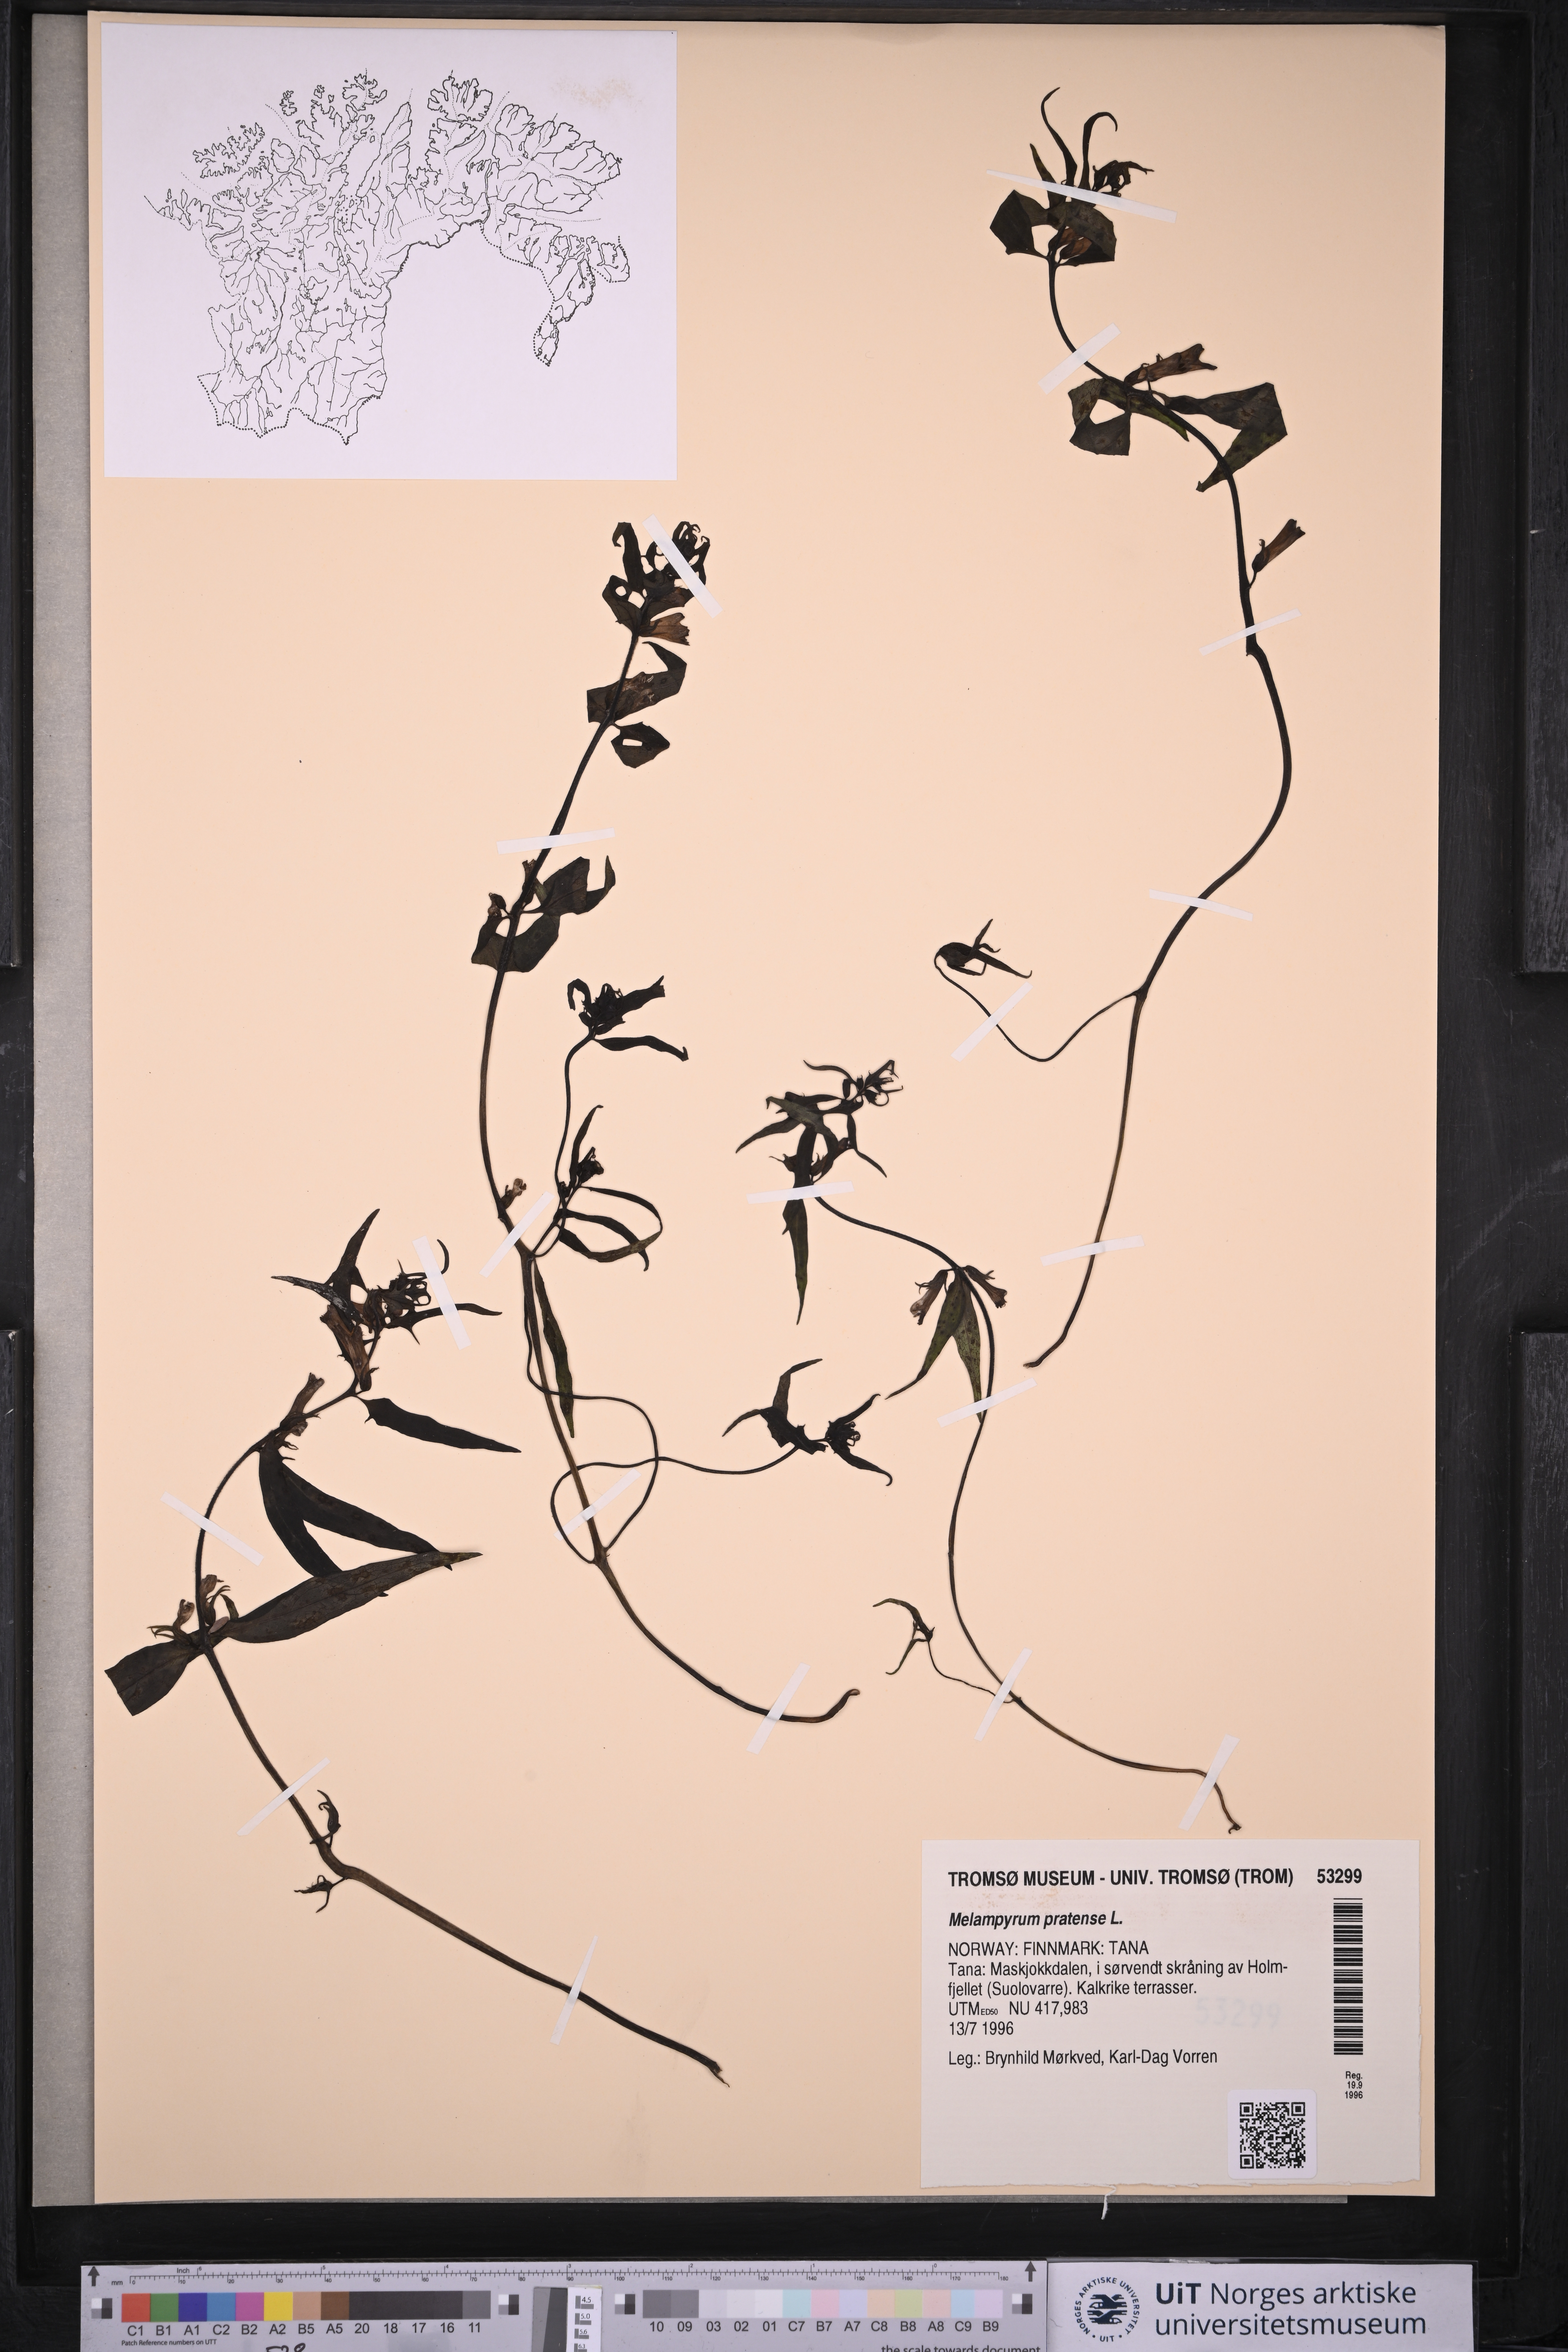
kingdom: Plantae
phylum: Tracheophyta
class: Magnoliopsida
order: Lamiales
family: Orobanchaceae
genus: Melampyrum
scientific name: Melampyrum pratense
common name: Common cow-wheat
